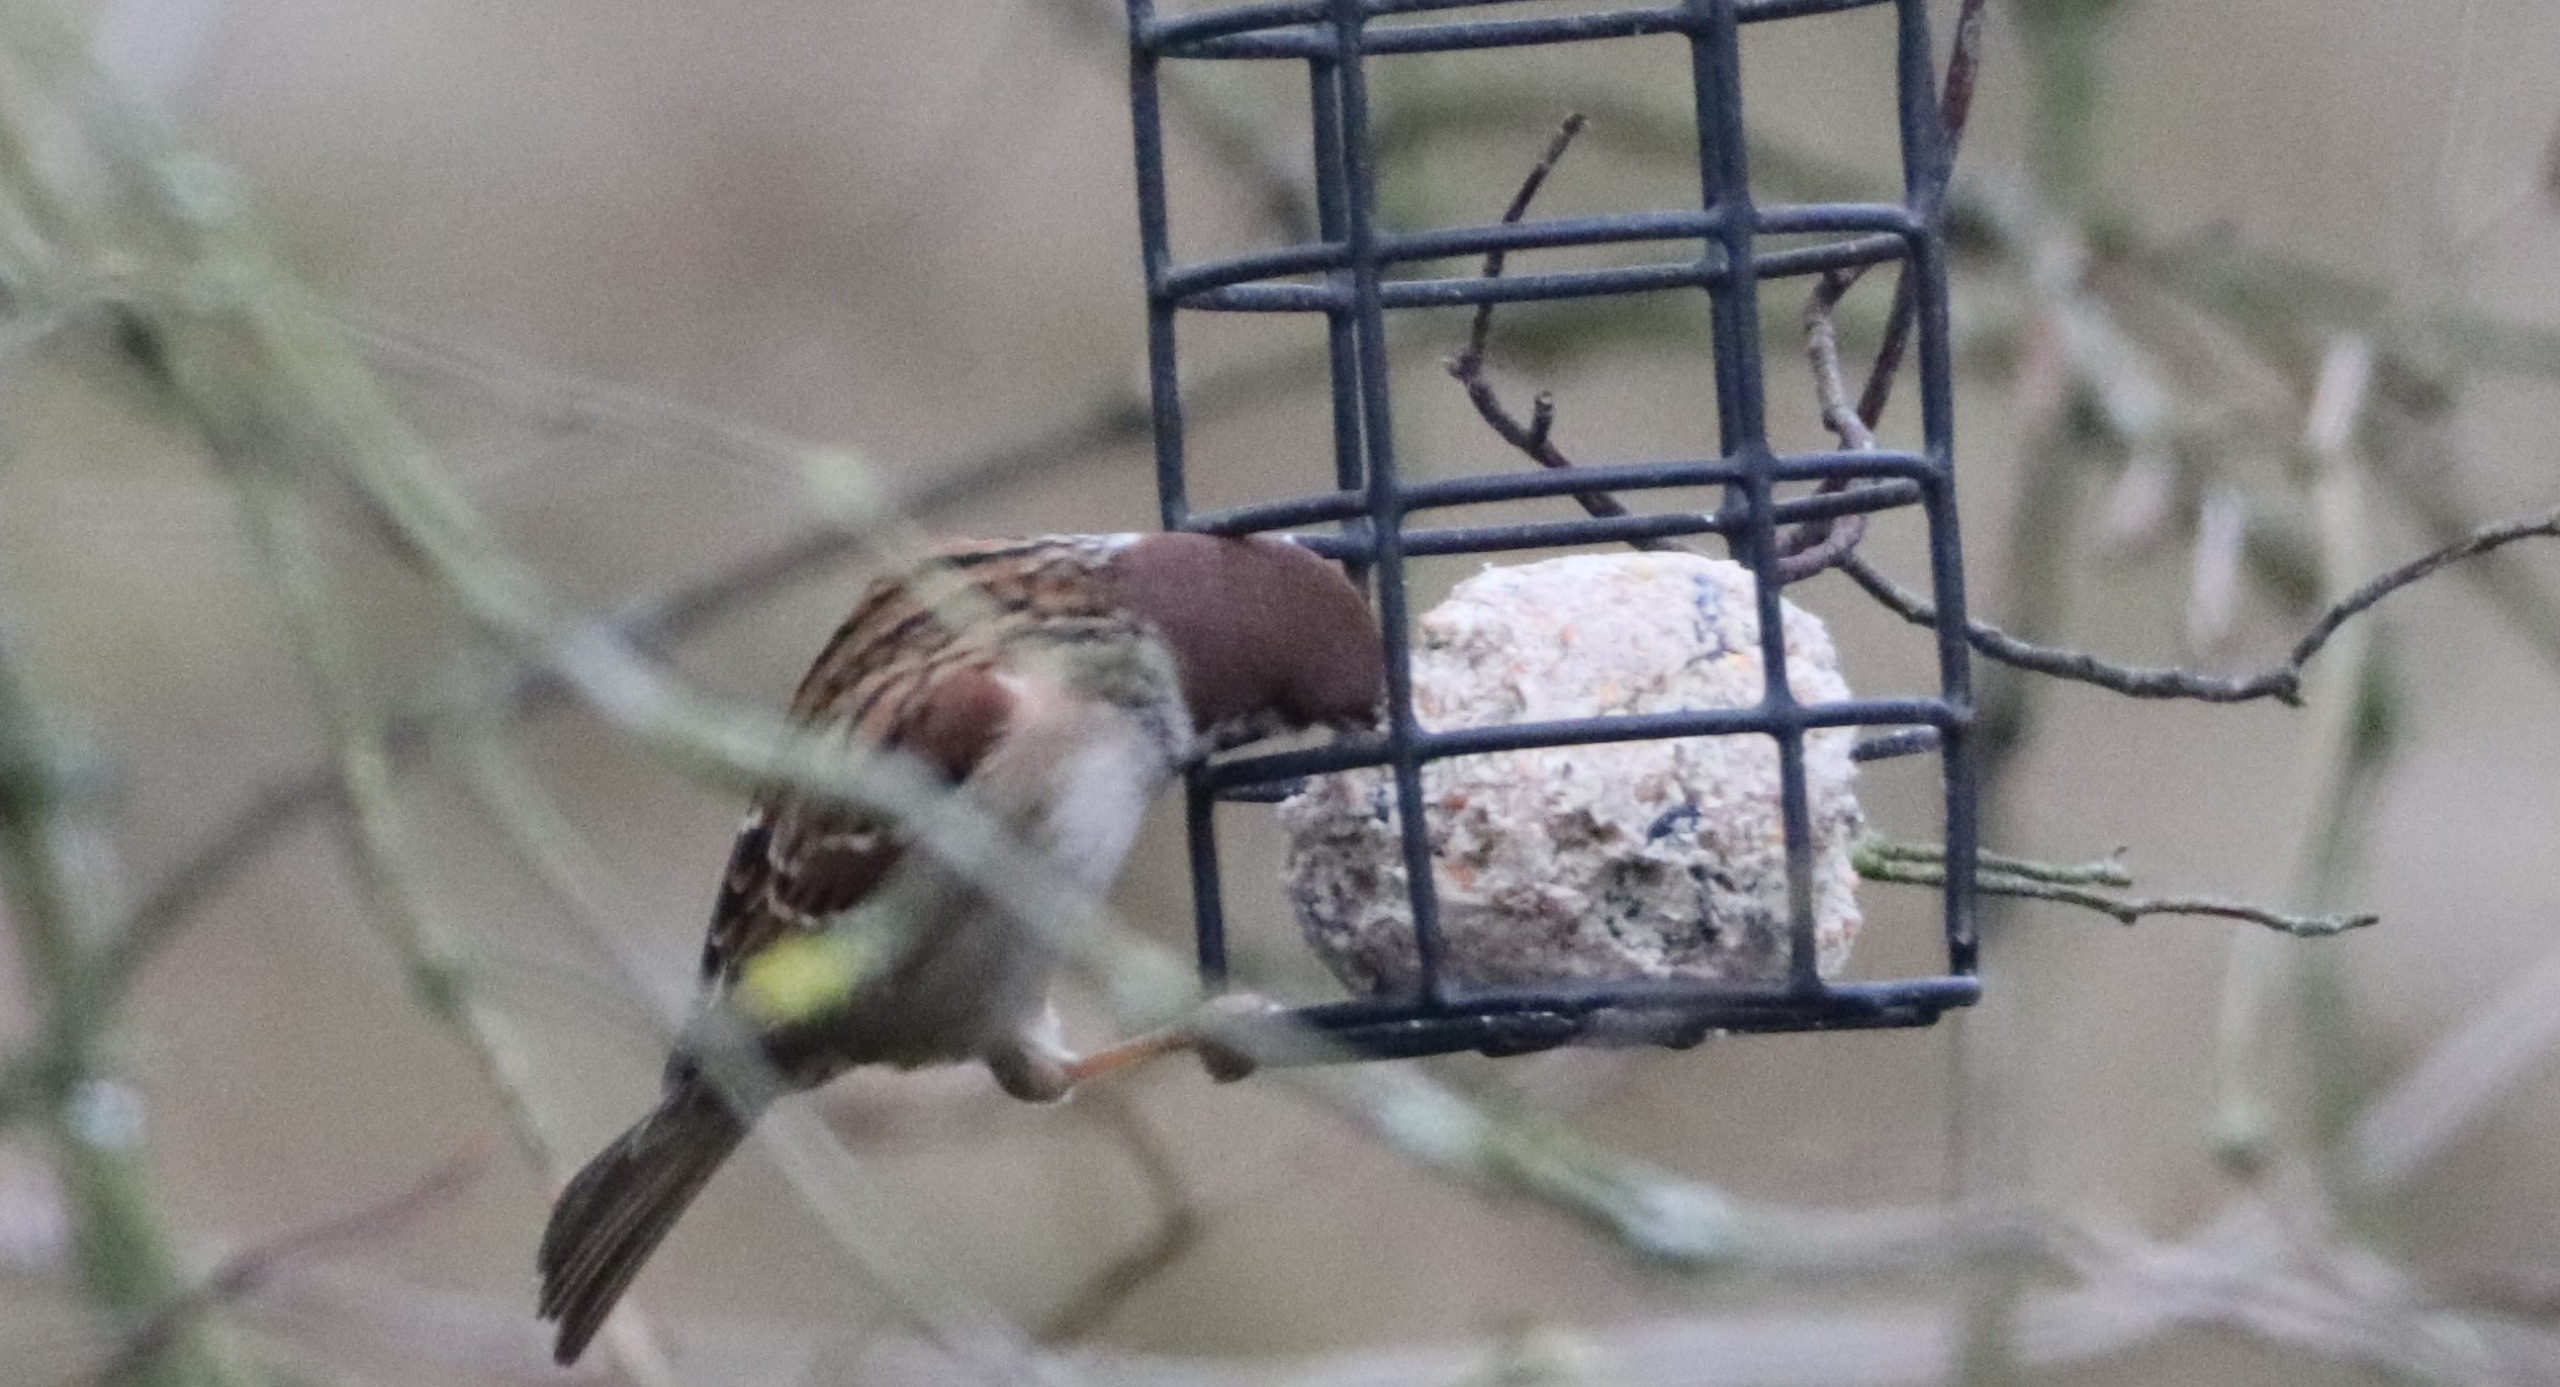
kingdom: Animalia
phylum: Chordata
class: Aves
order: Passeriformes
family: Passeridae
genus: Passer
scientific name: Passer montanus
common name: Skovspurv
